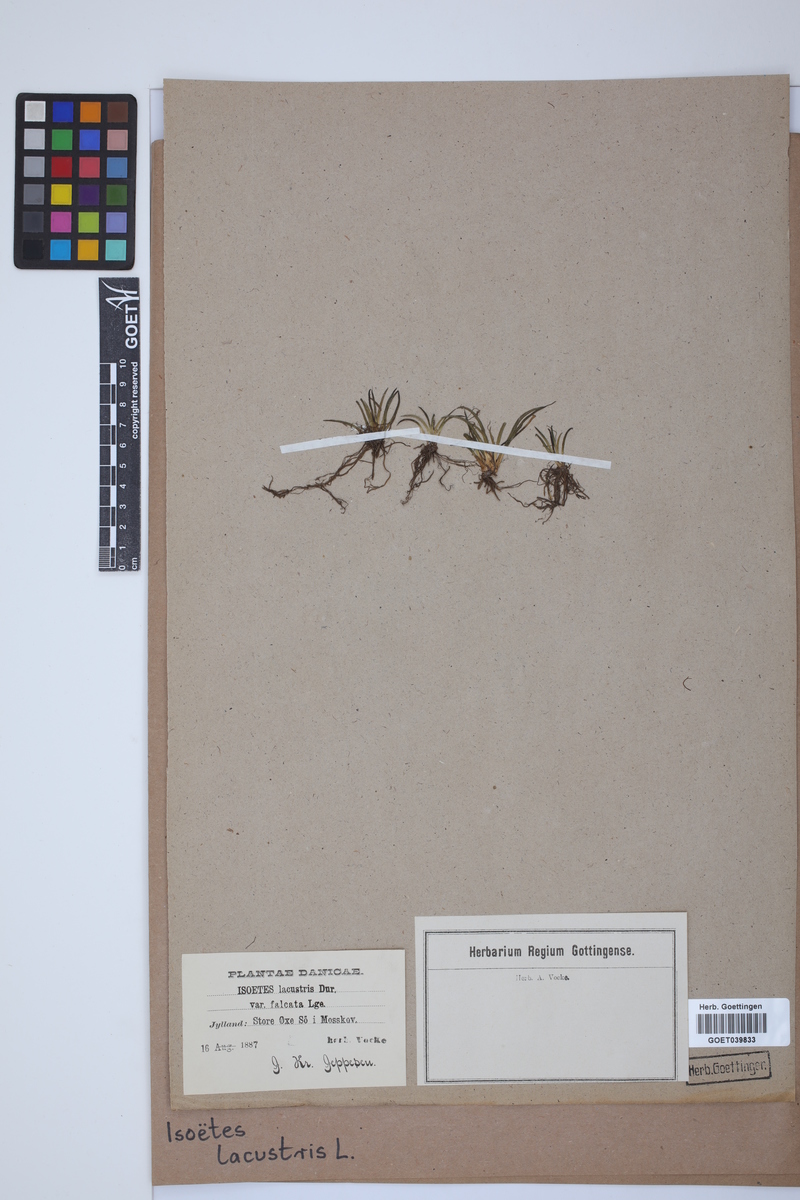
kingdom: Plantae
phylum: Tracheophyta
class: Lycopodiopsida
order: Isoetales
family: Isoetaceae
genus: Isoetes
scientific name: Isoetes lacustris
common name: Common quillwort
